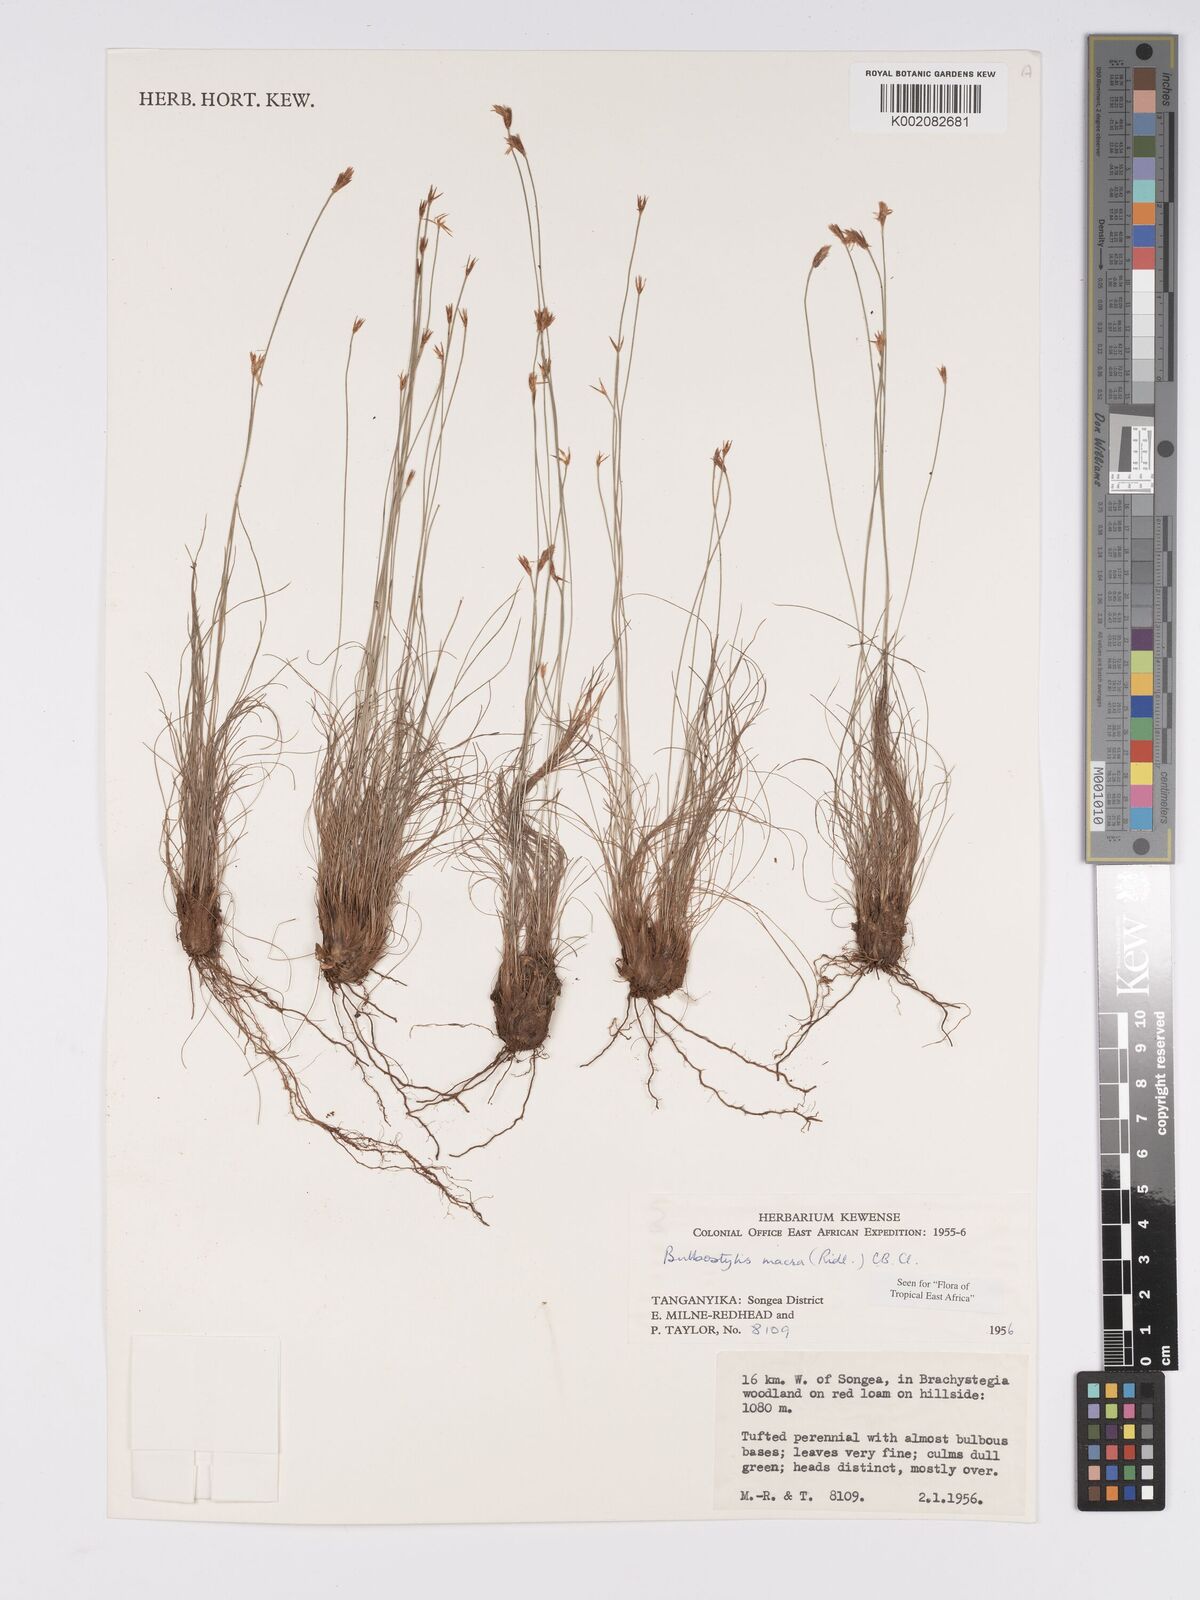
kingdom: Plantae
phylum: Tracheophyta
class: Liliopsida
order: Poales
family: Cyperaceae
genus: Bulbostylis
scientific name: Bulbostylis macra
